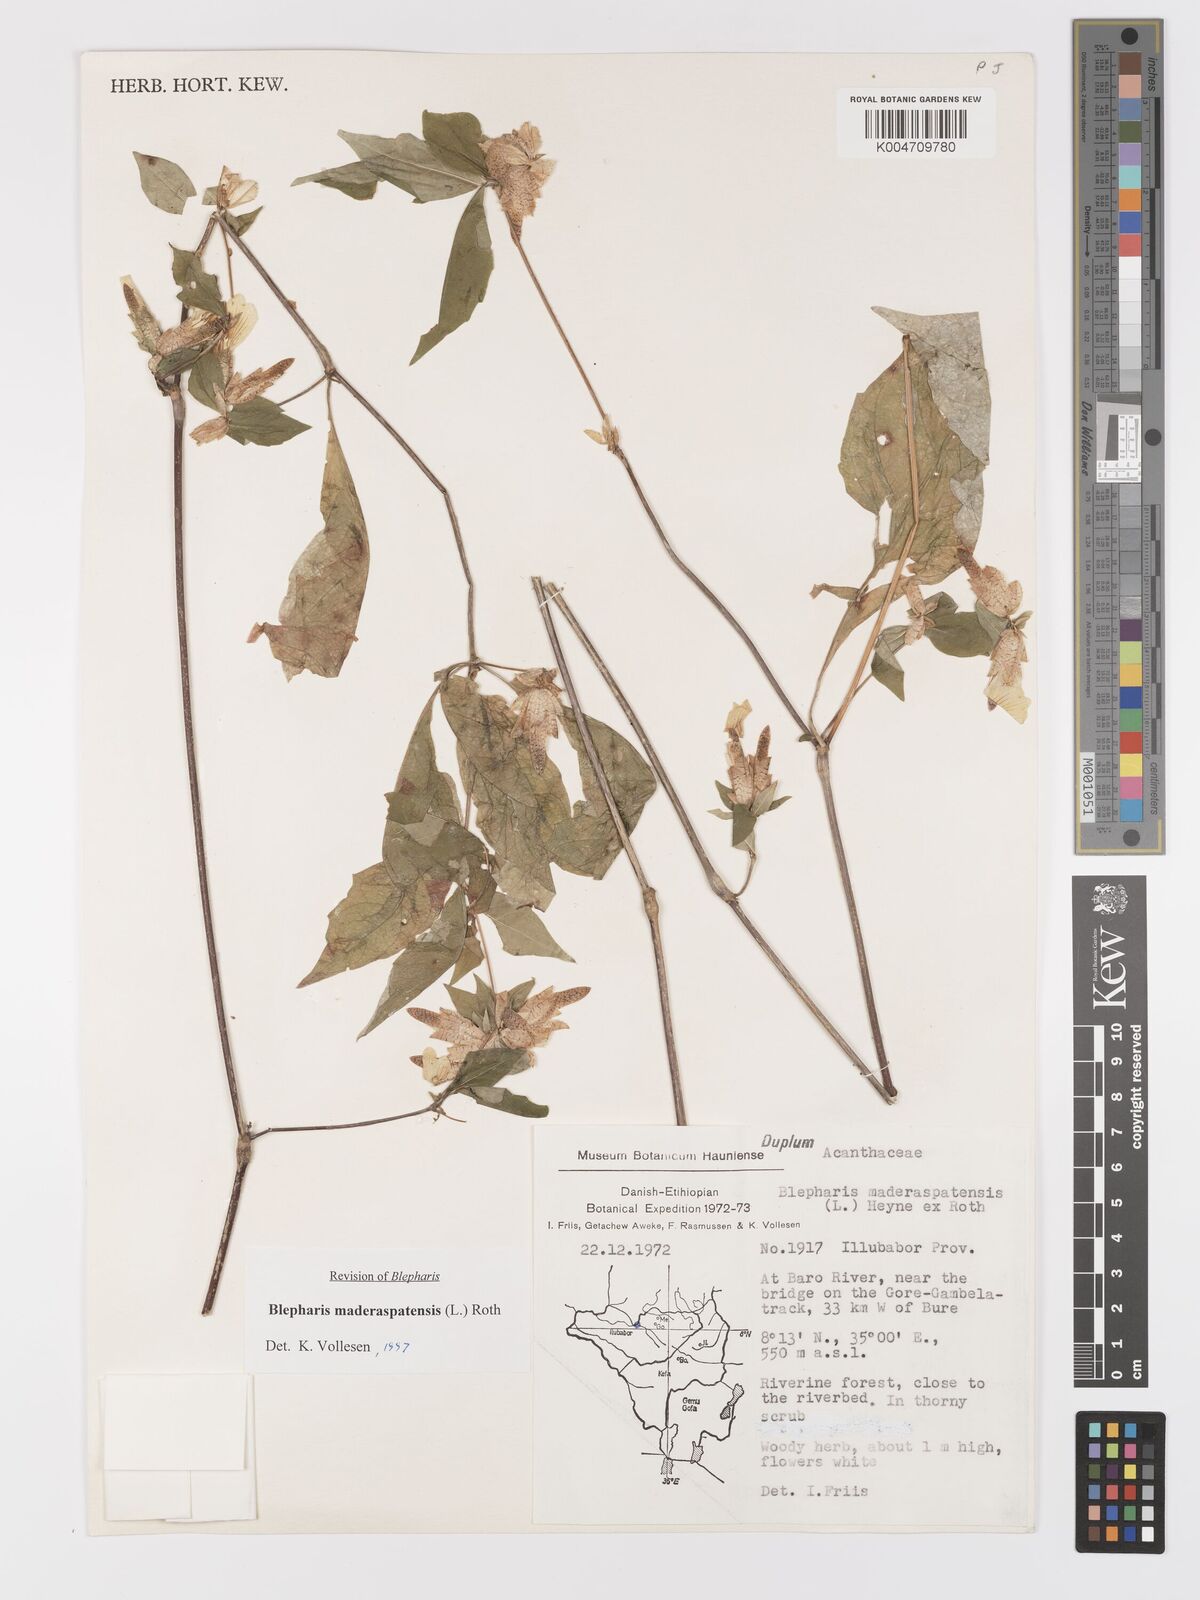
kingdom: Plantae
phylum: Tracheophyta
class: Magnoliopsida
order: Lamiales
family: Acanthaceae
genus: Blepharis
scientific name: Blepharis maderaspatensis
